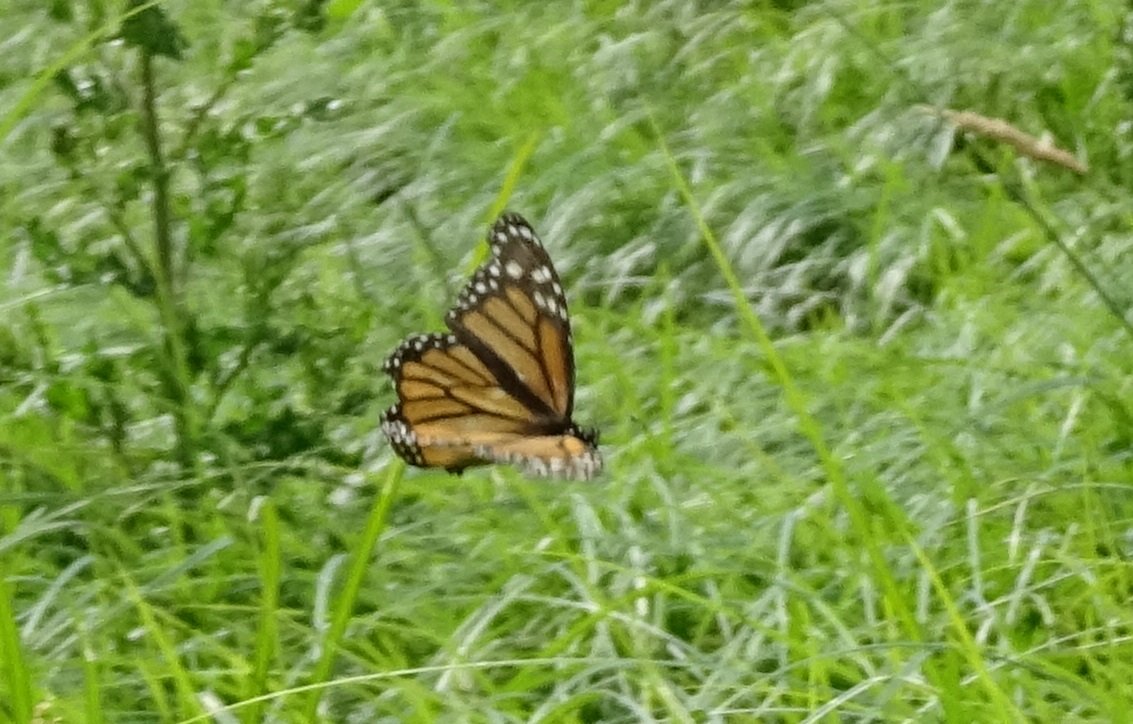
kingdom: Animalia
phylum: Arthropoda
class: Insecta
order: Lepidoptera
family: Nymphalidae
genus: Danaus
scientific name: Danaus plexippus
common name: Monarch
